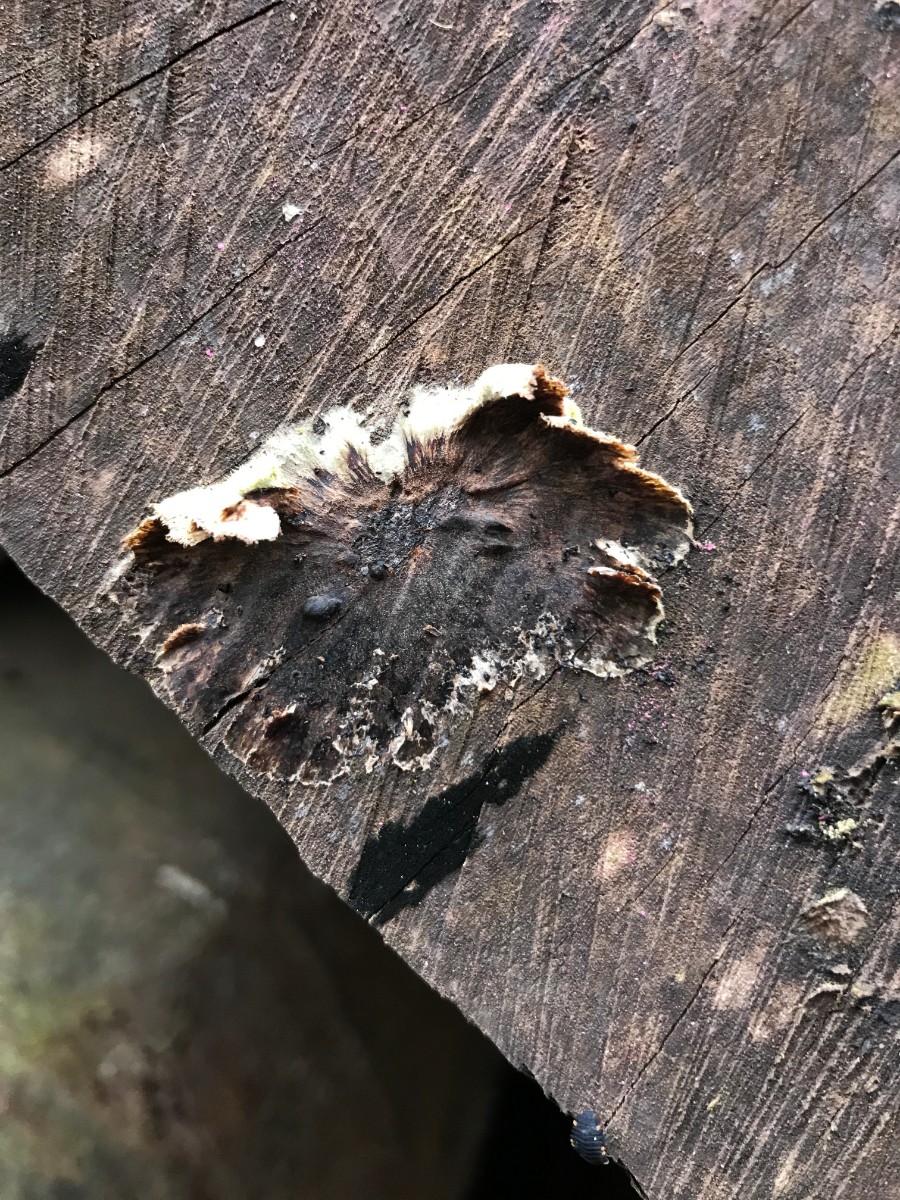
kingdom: Fungi
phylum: Basidiomycota
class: Agaricomycetes
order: Agaricales
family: Cyphellaceae
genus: Chondrostereum
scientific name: Chondrostereum purpureum
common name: purpurlædersvamp
